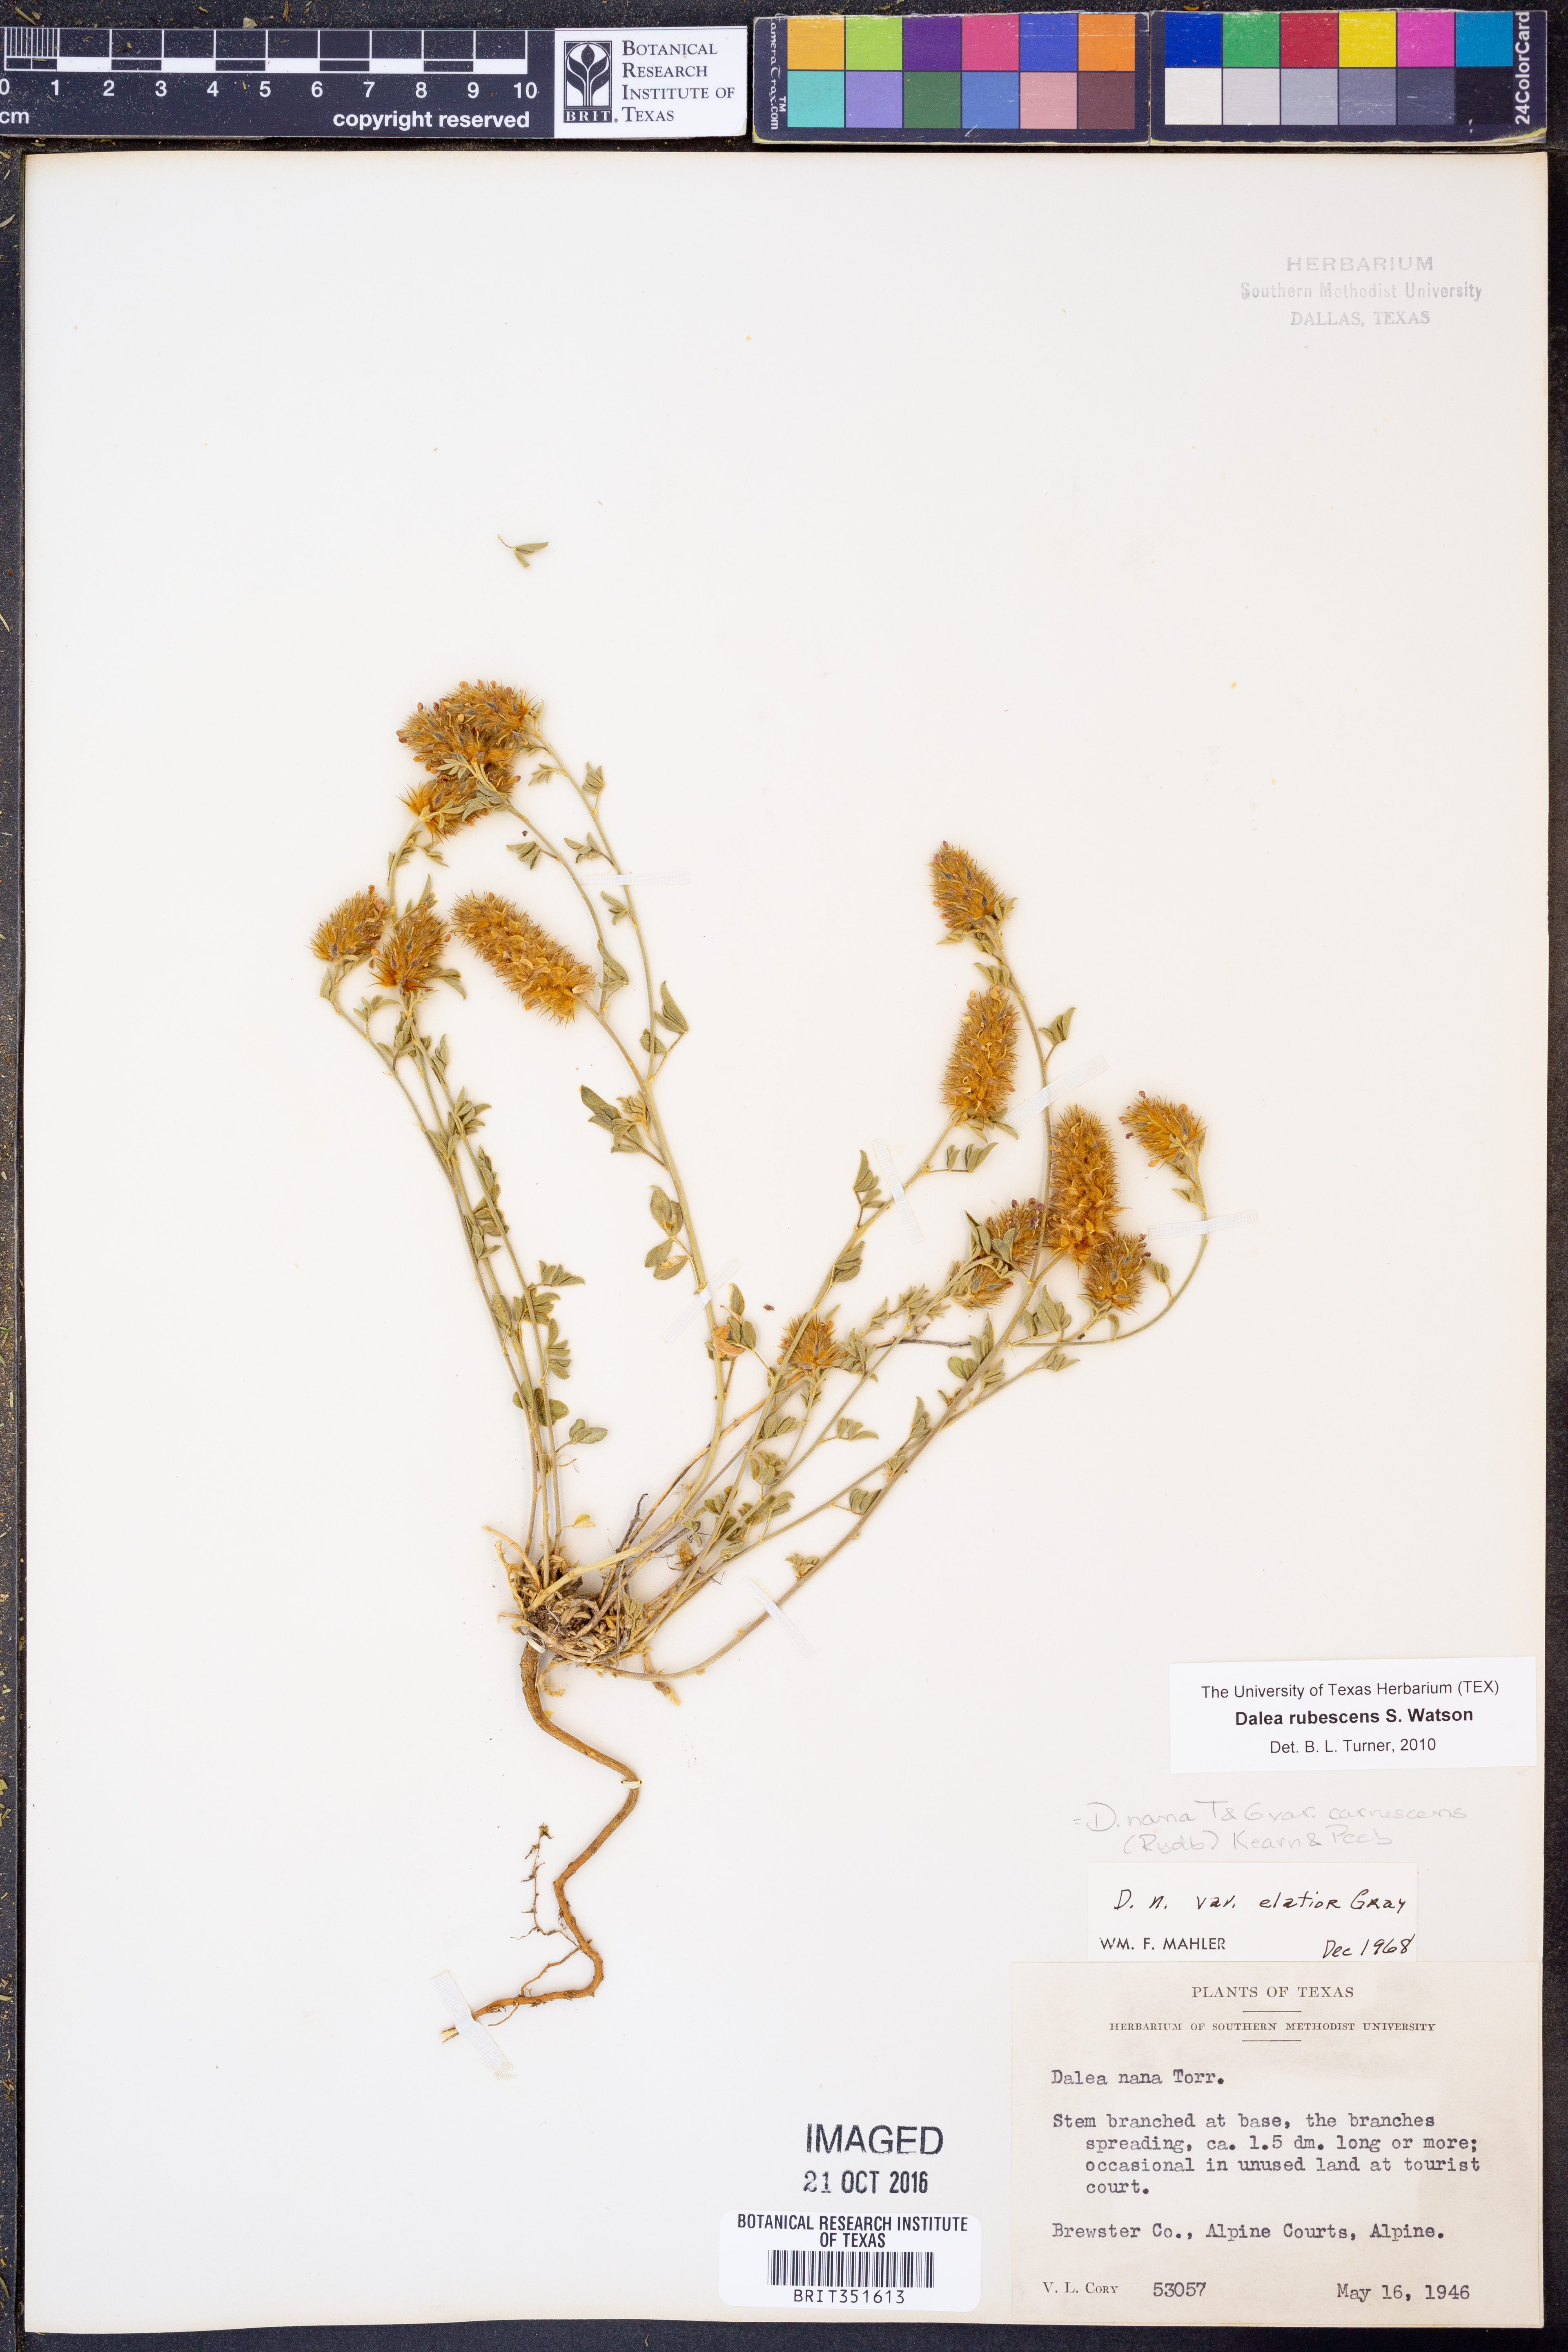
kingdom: Plantae
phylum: Tracheophyta
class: Magnoliopsida
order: Fabales
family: Fabaceae
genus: Dalea
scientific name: Dalea rubescens
